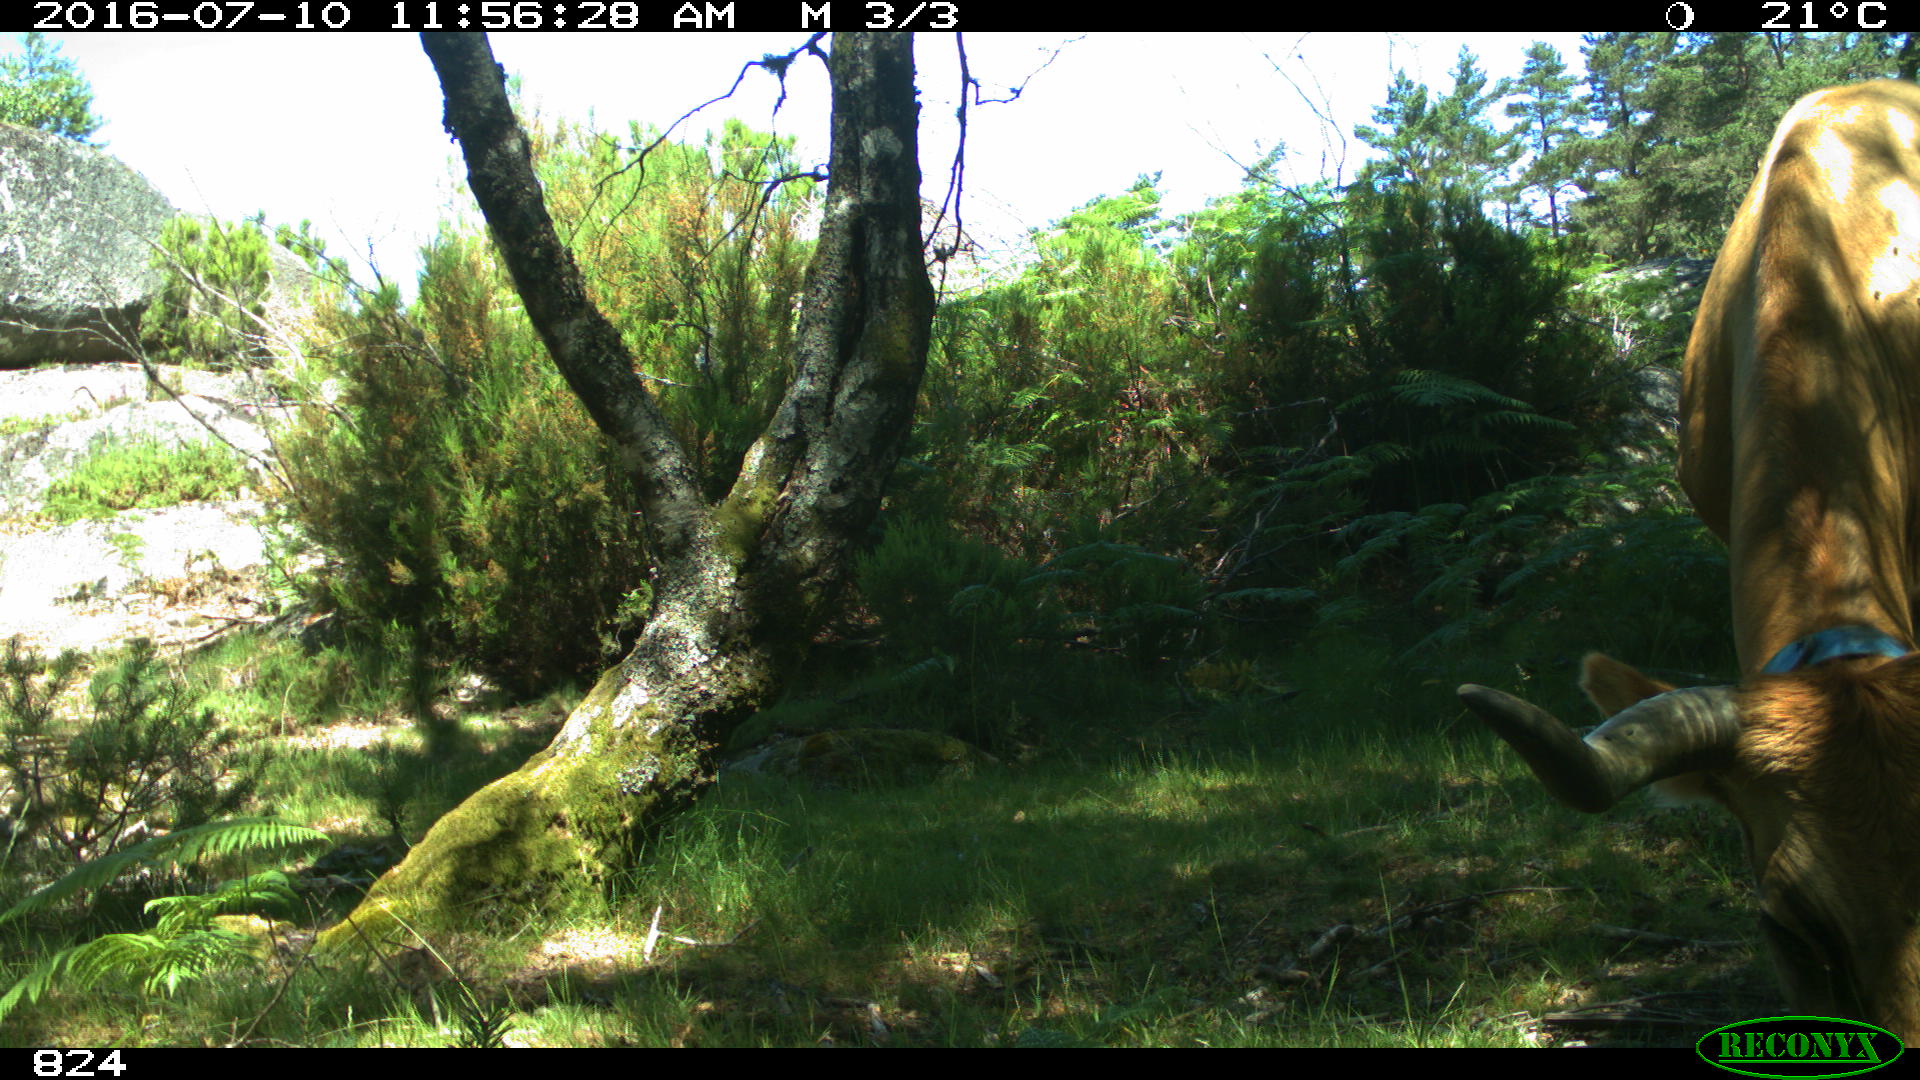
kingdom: Animalia
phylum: Chordata
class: Mammalia
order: Artiodactyla
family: Bovidae
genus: Bos
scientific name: Bos taurus
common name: Domesticated cattle
